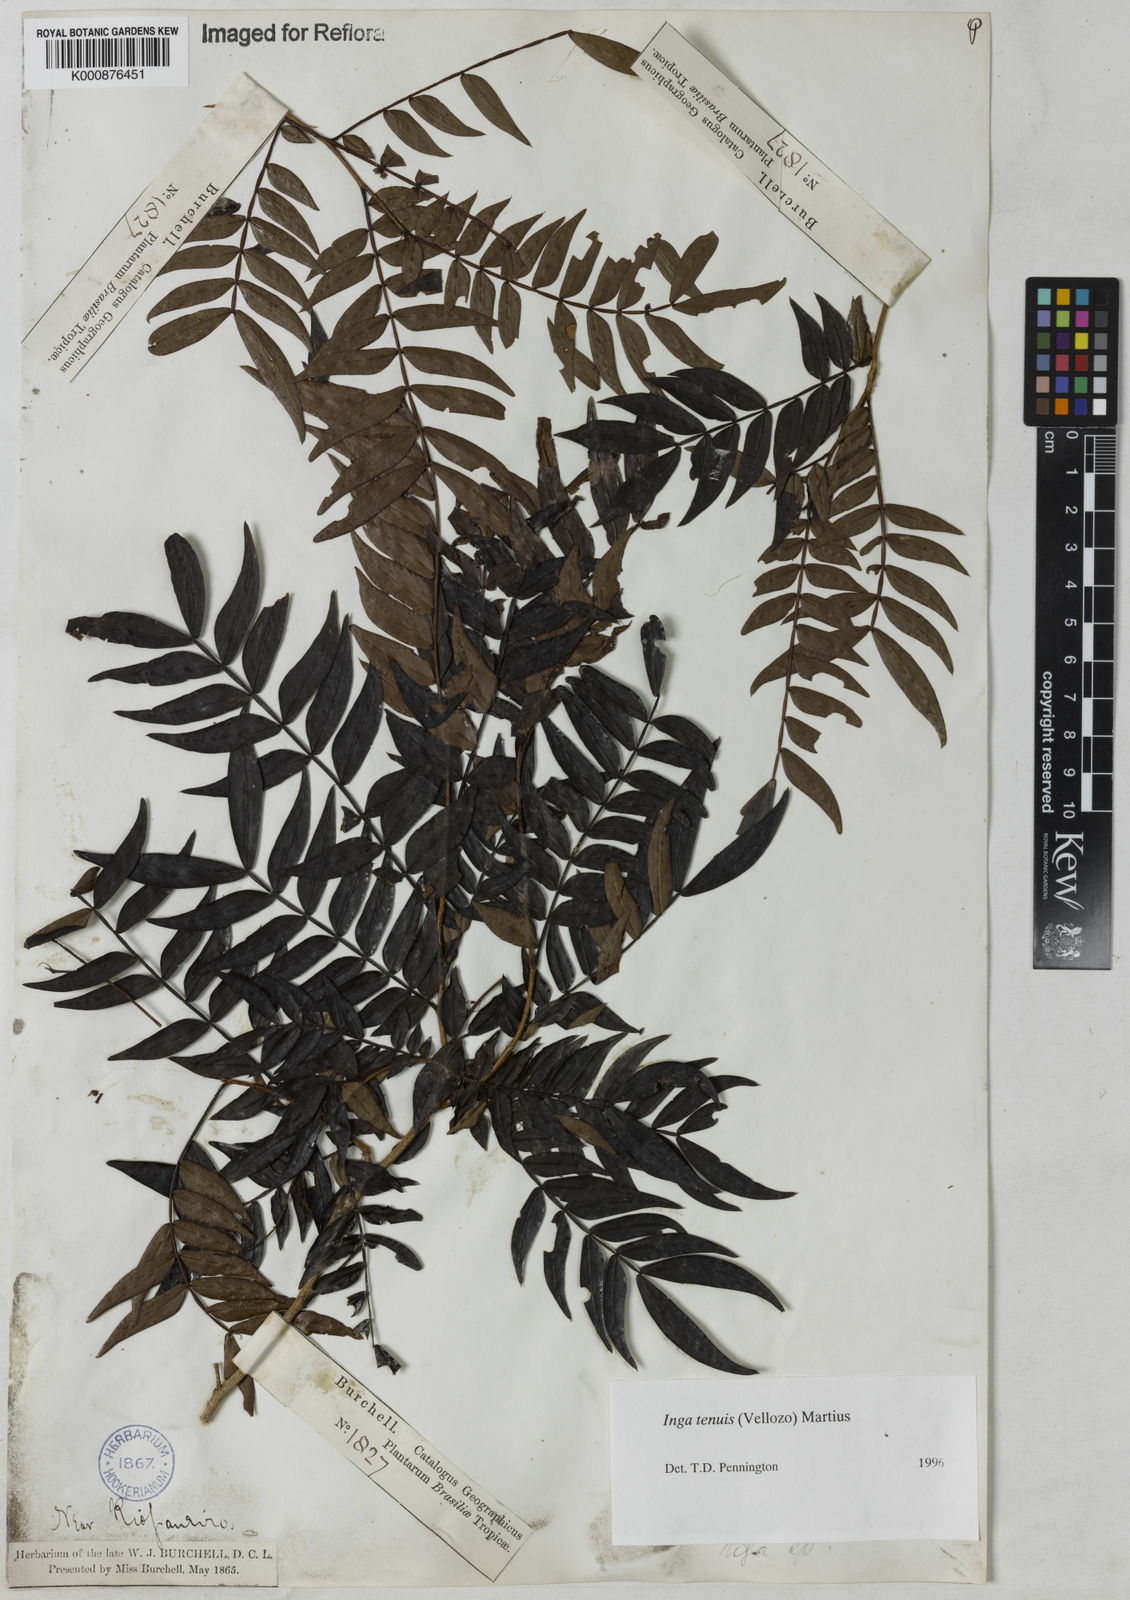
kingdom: Plantae
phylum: Tracheophyta
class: Magnoliopsida
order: Fabales
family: Fabaceae
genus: Inga
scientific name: Inga tenuis
